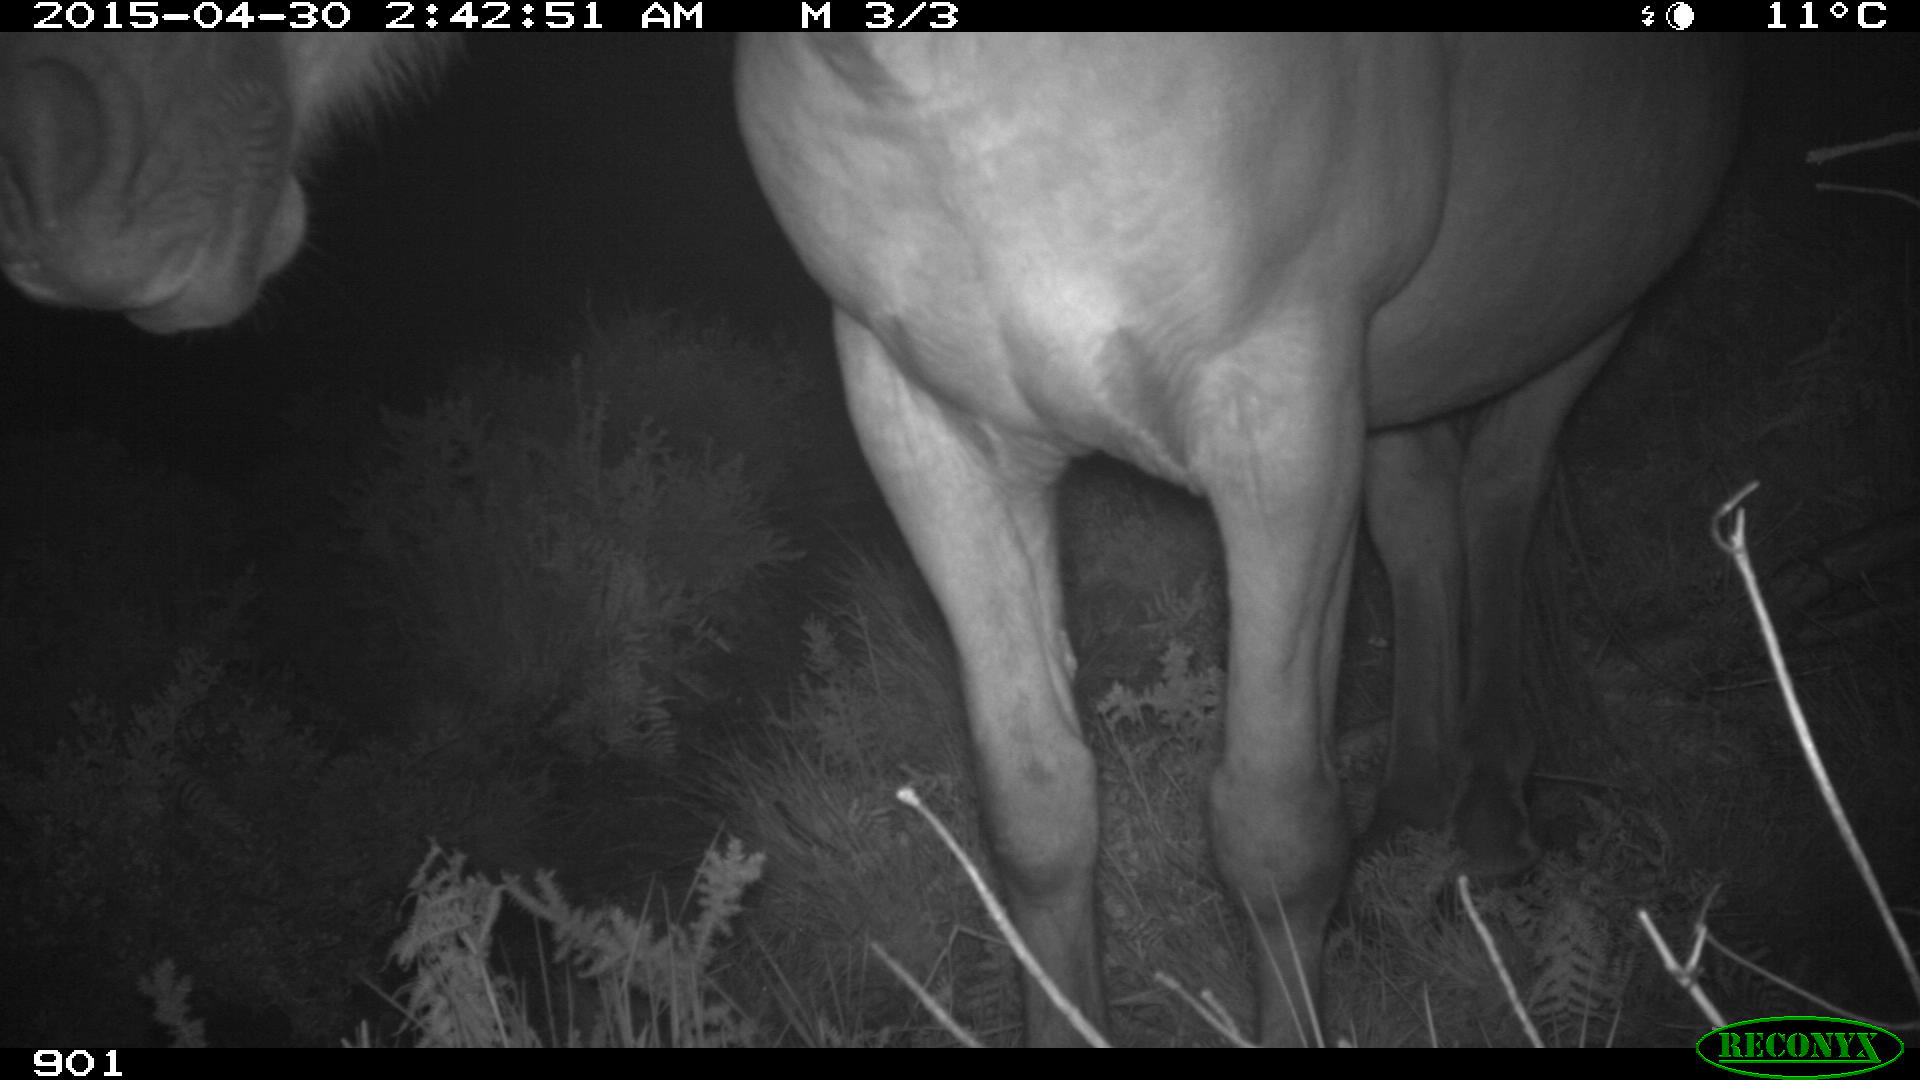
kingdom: Animalia
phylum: Chordata
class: Mammalia
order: Perissodactyla
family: Equidae
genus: Equus
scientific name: Equus caballus
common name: Horse
